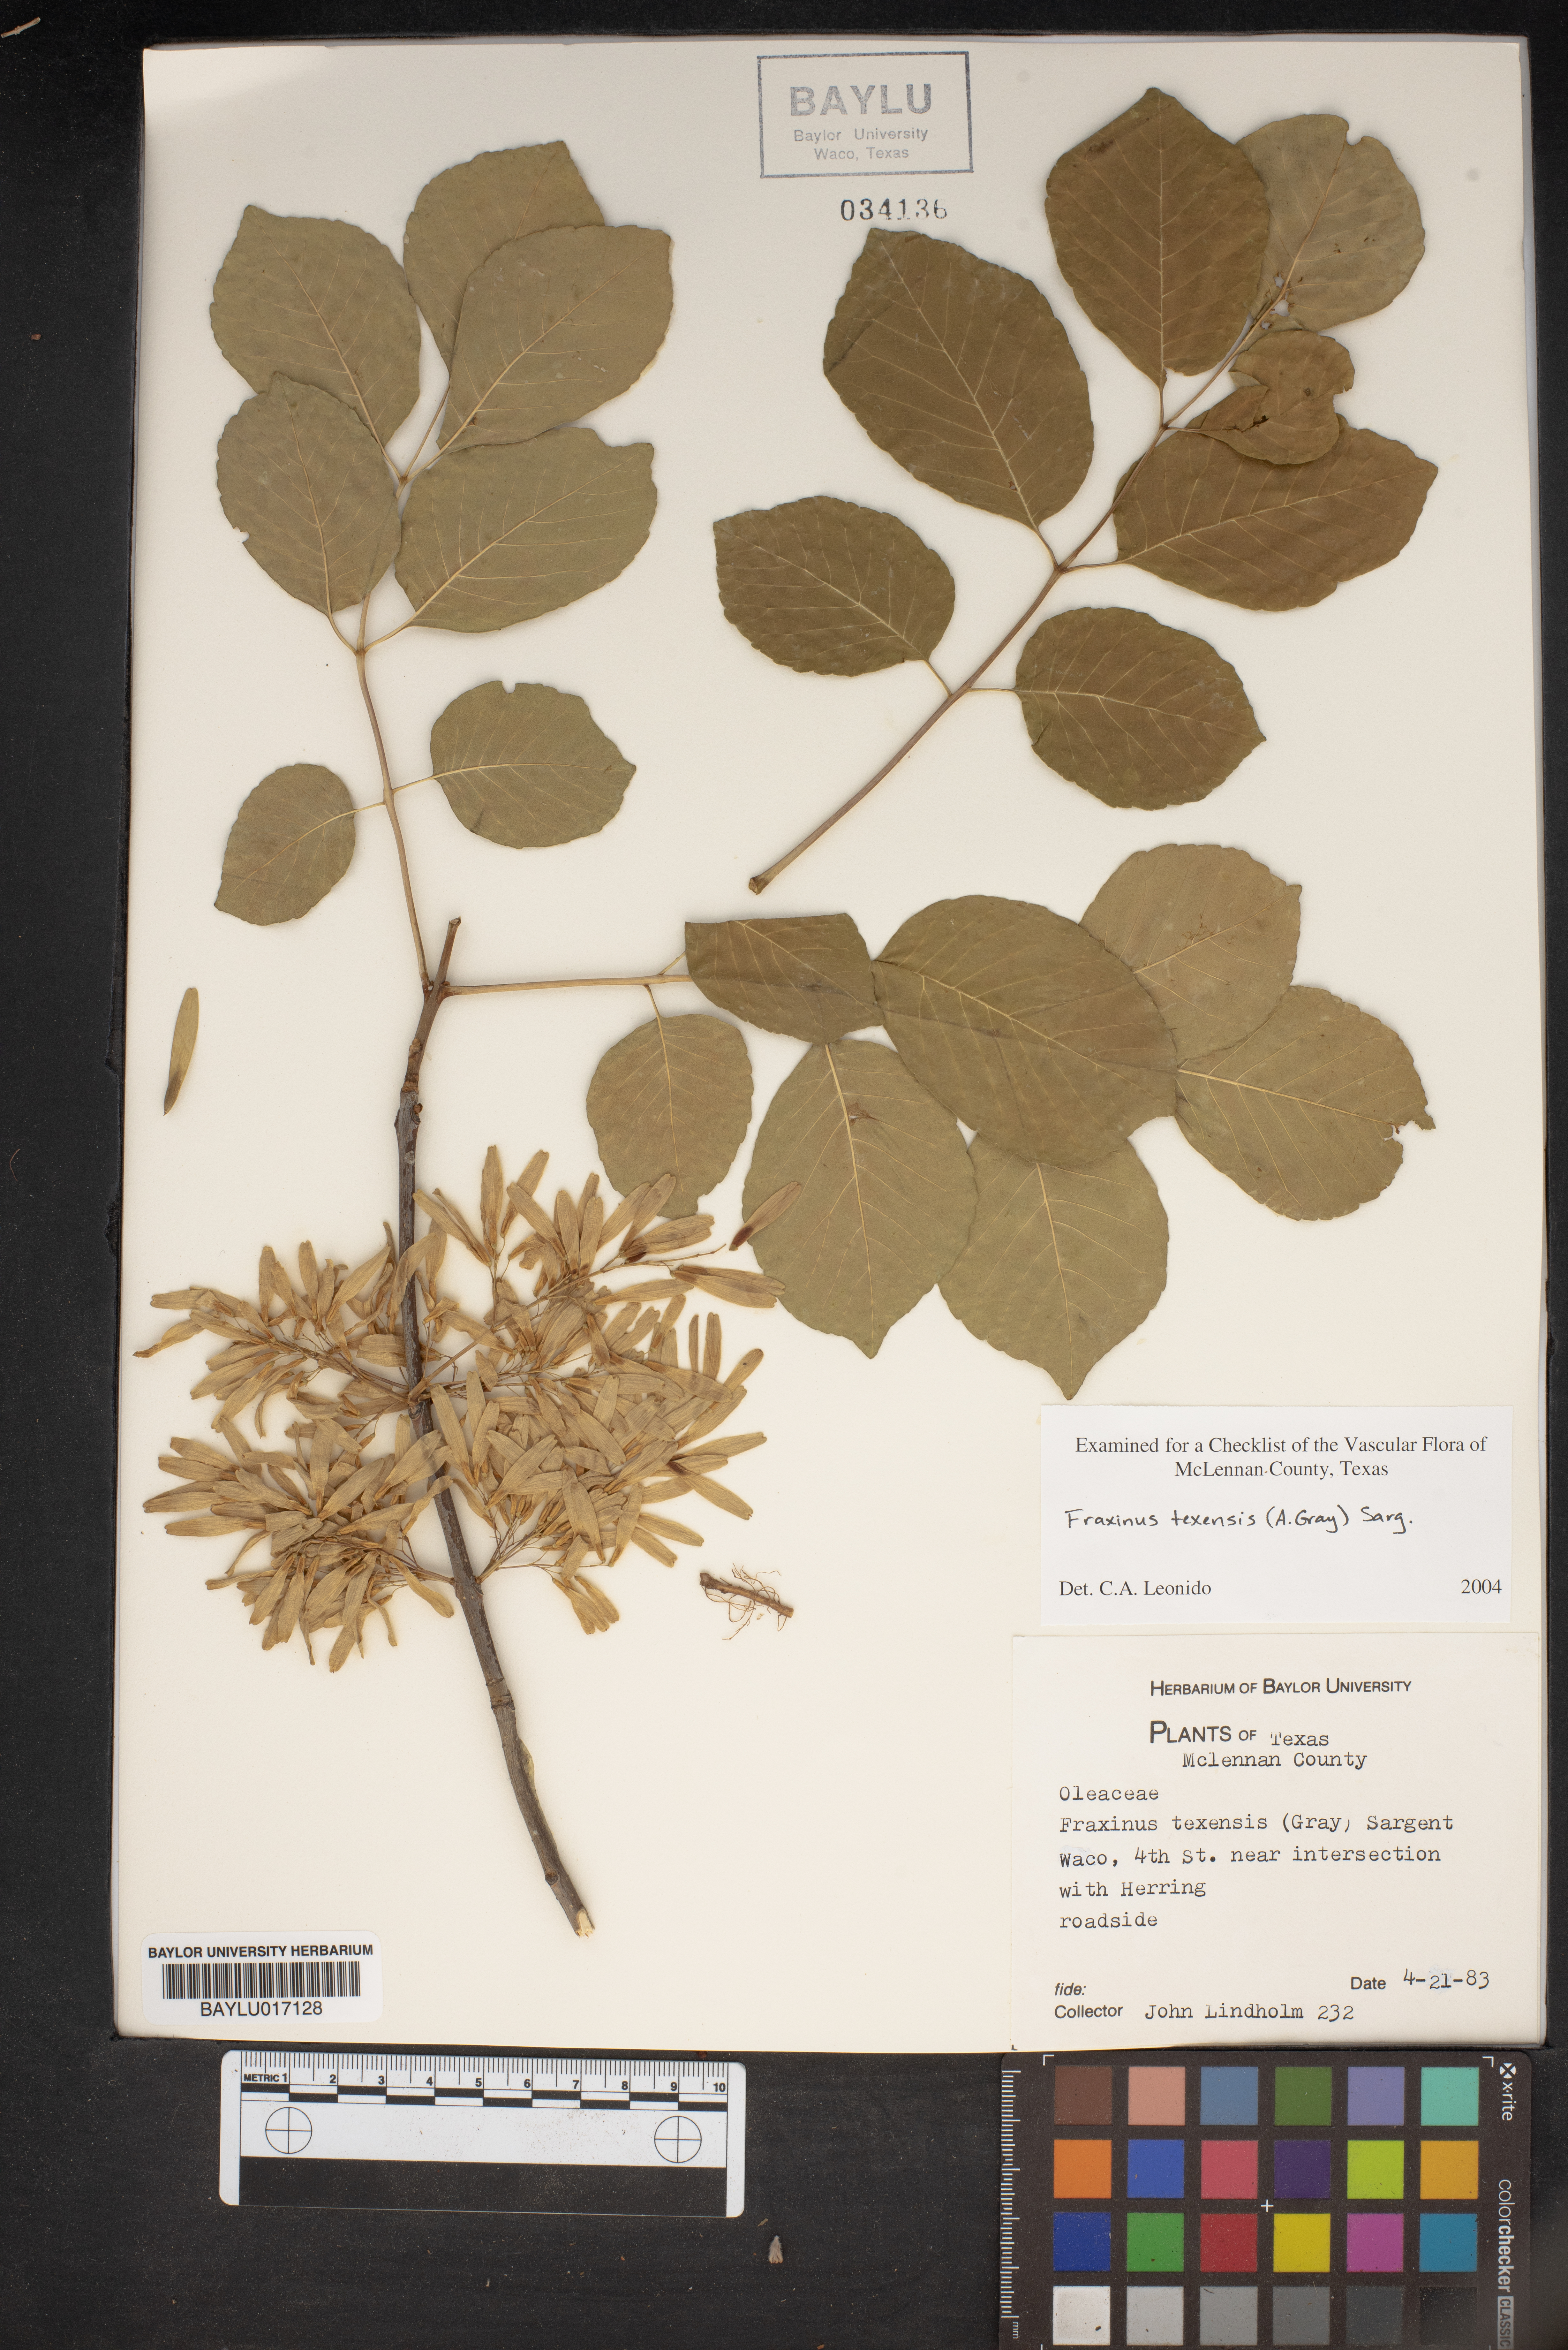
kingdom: Plantae
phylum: Tracheophyta
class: Magnoliopsida
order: Lamiales
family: Oleaceae
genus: Fraxinus
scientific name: Fraxinus albicans
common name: Texas ash
